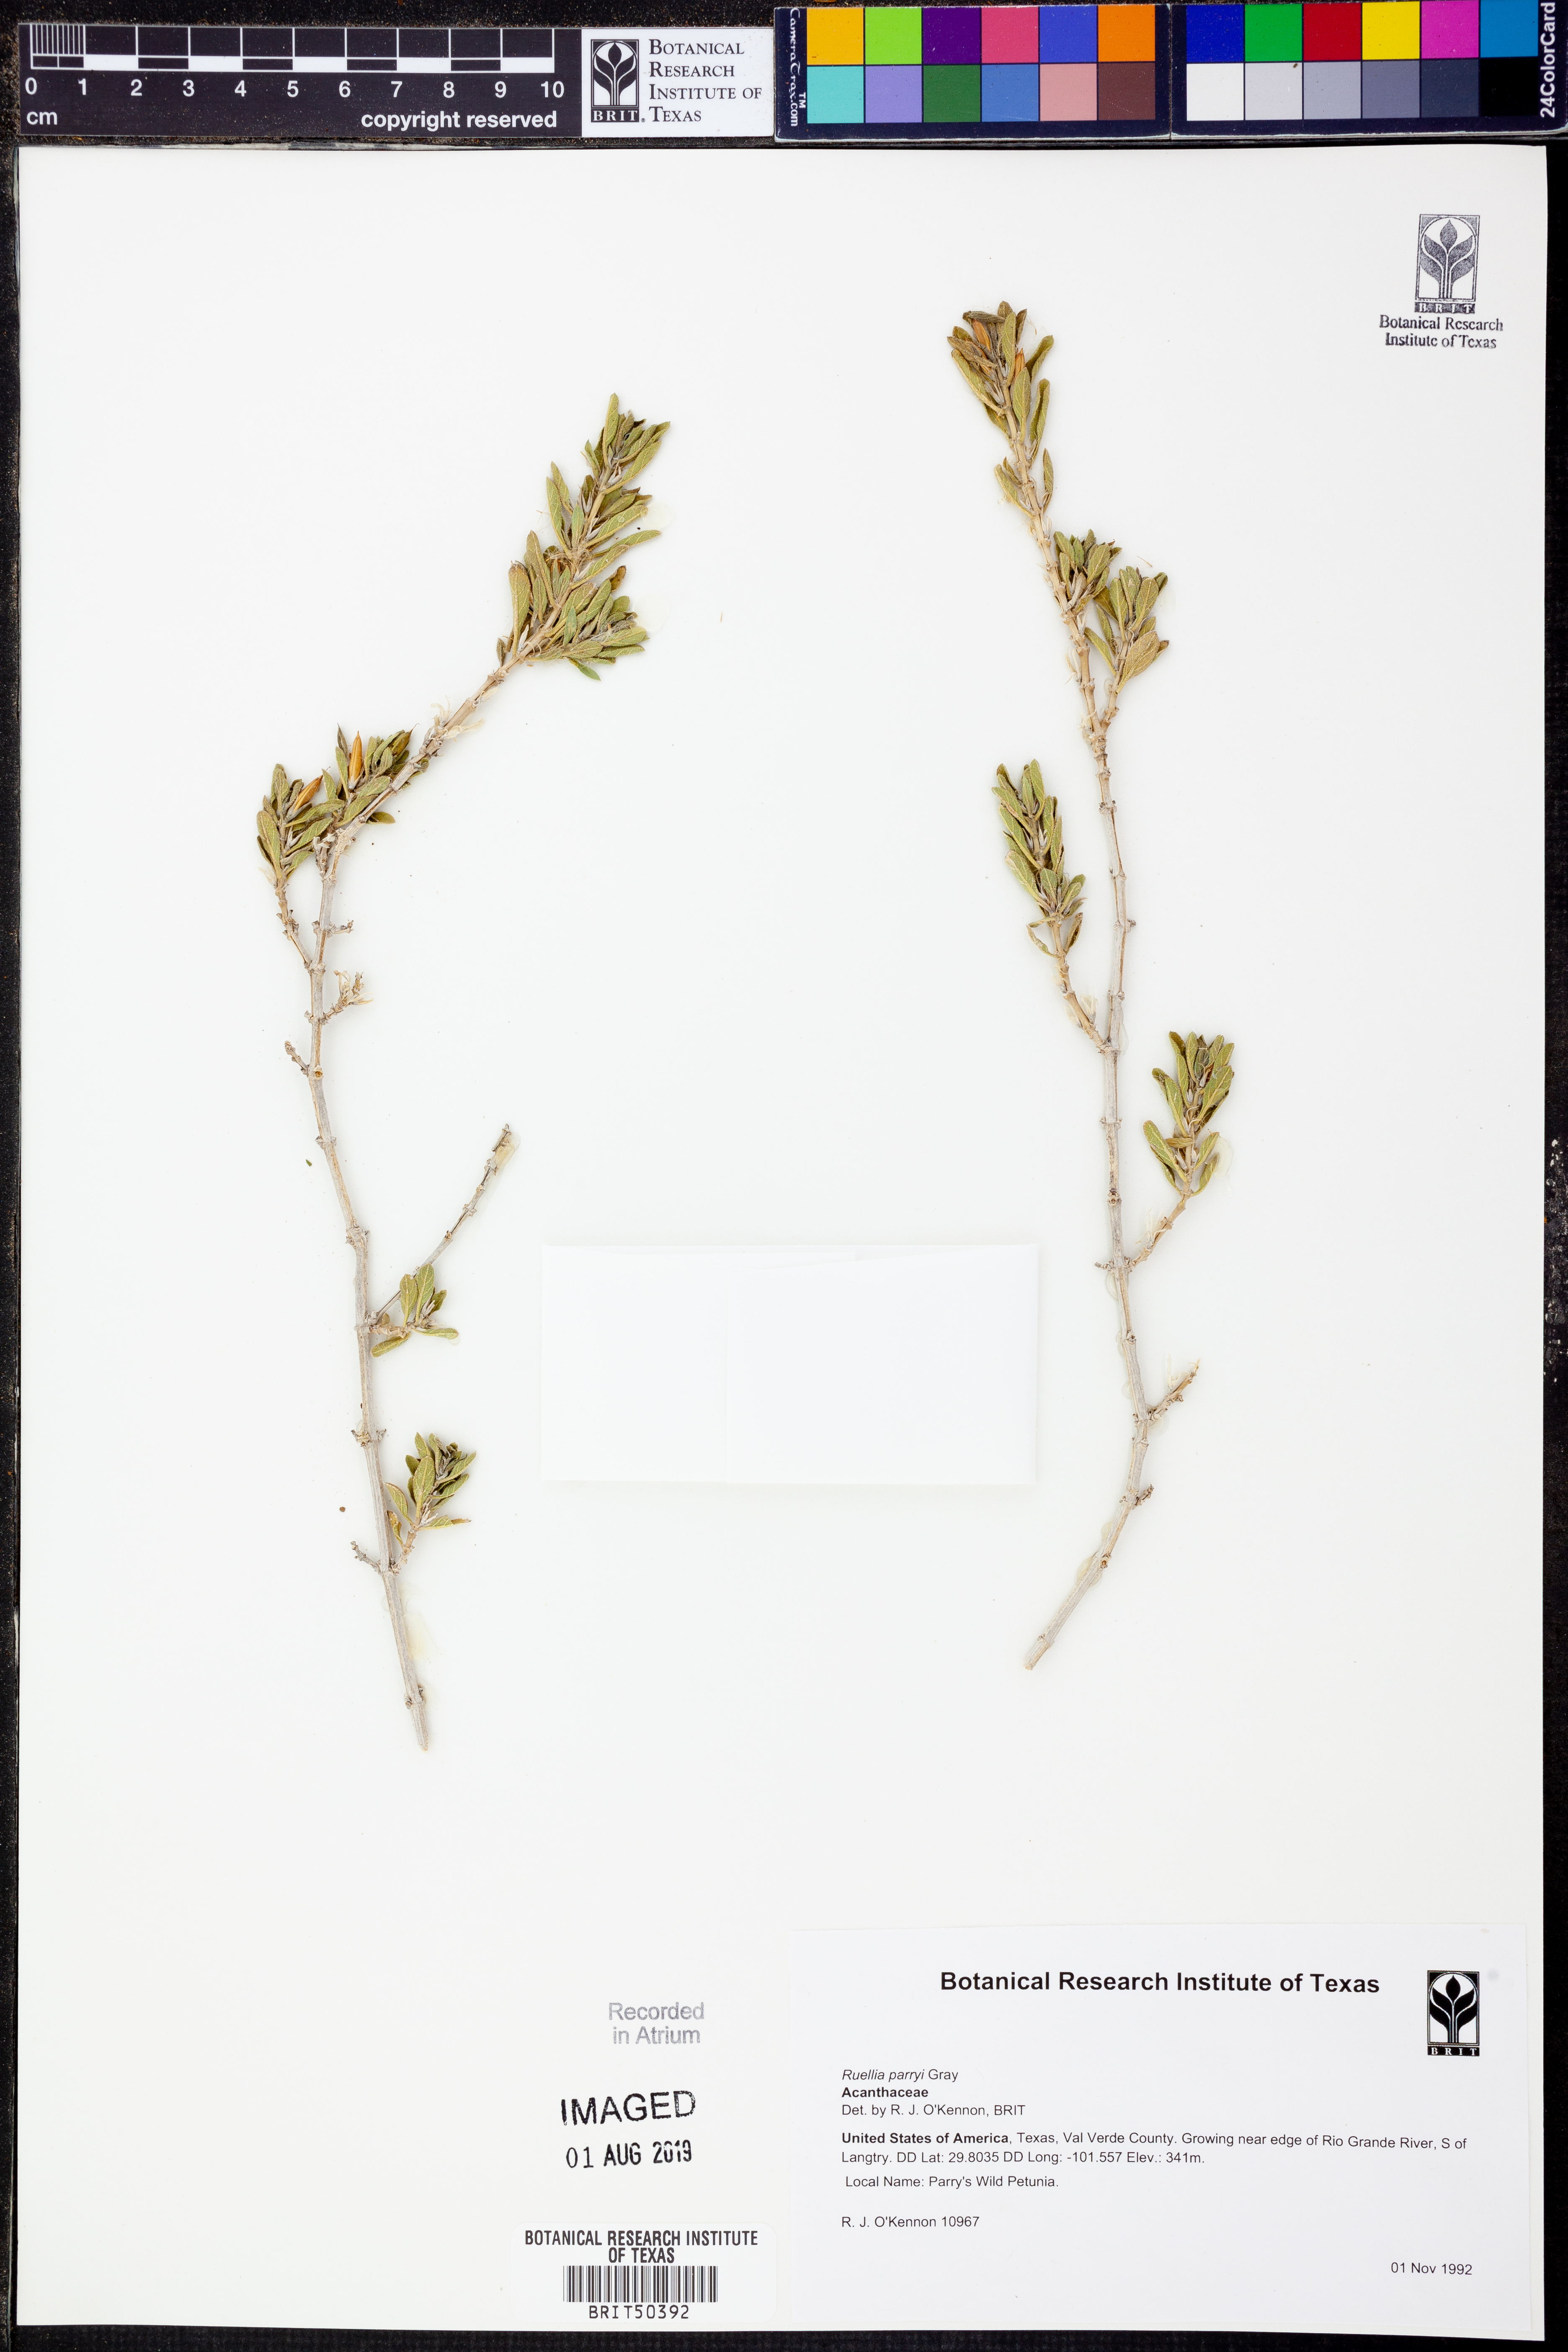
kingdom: Plantae
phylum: Tracheophyta
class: Magnoliopsida
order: Lamiales
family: Acanthaceae
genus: Ruellia
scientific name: Ruellia parryi
